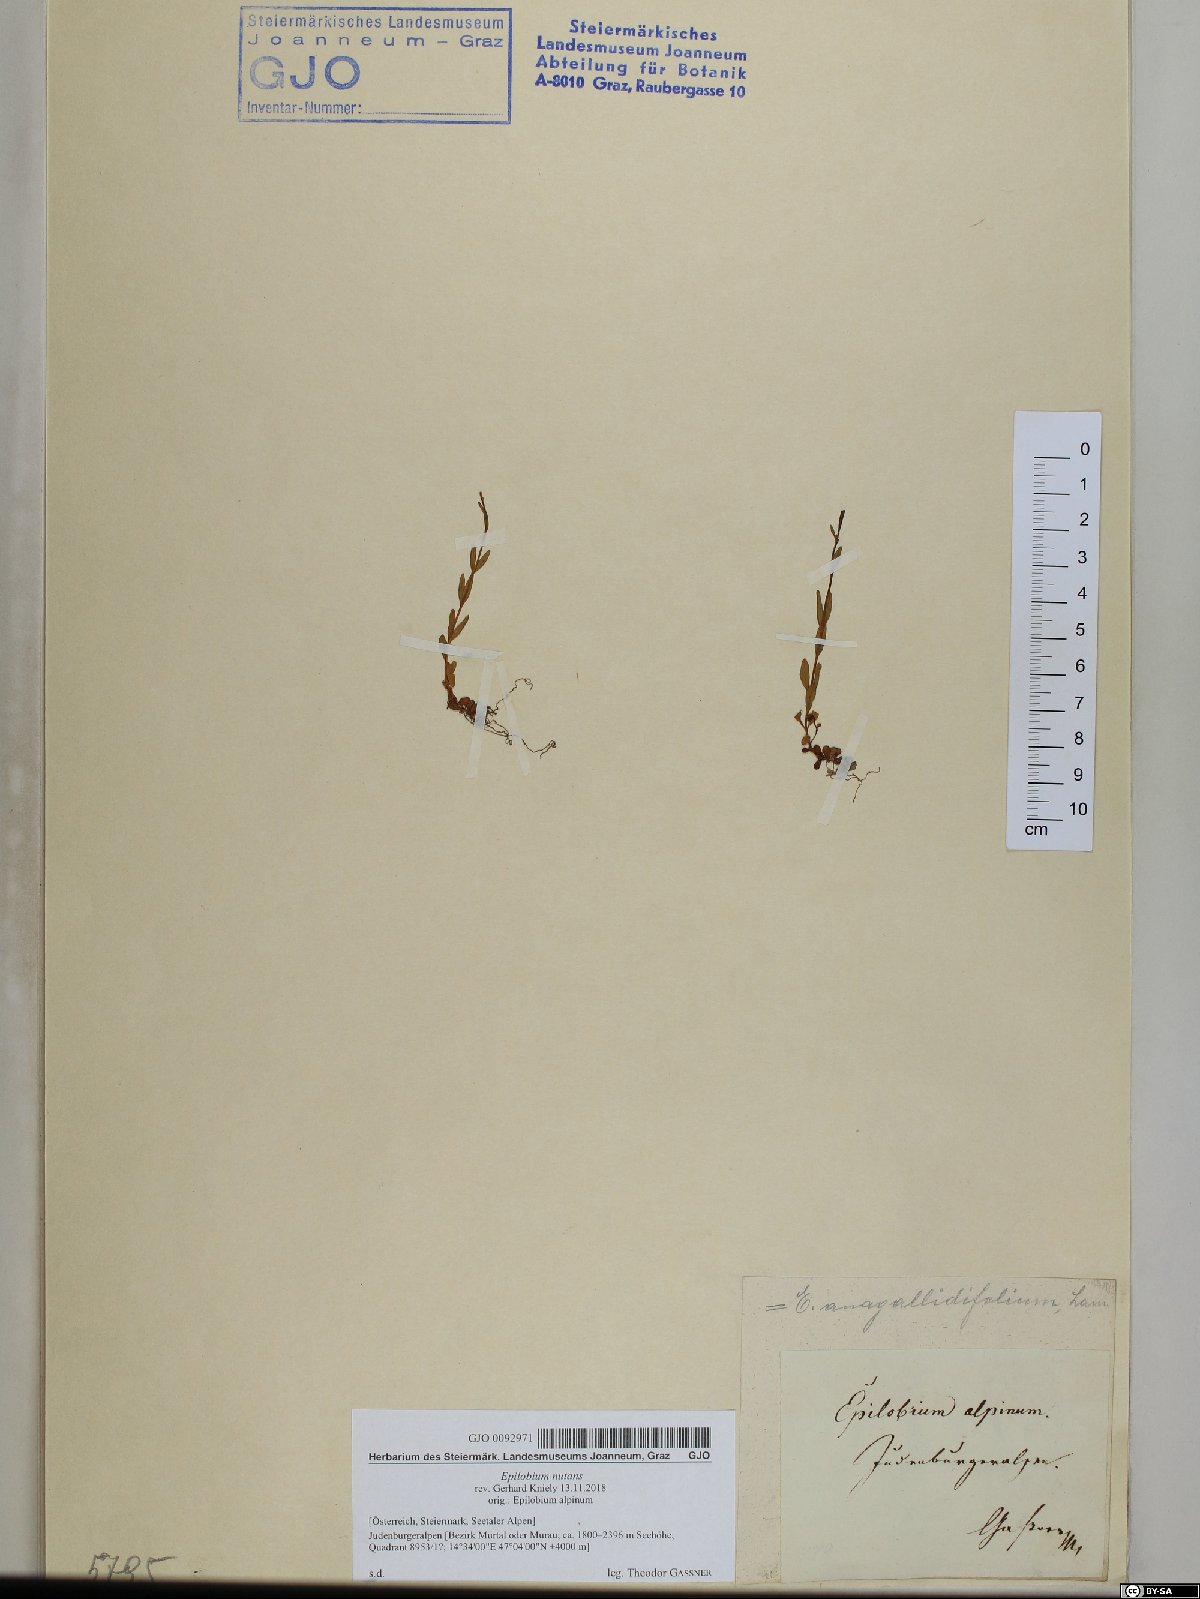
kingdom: Plantae
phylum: Tracheophyta
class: Magnoliopsida
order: Myrtales
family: Onagraceae
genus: Epilobium
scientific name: Epilobium nutans
